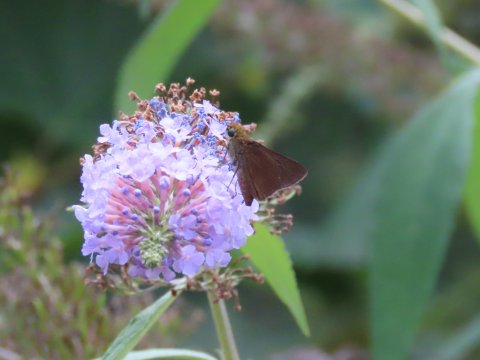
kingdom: Animalia
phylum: Arthropoda
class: Insecta
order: Lepidoptera
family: Hesperiidae
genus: Euphyes
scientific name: Euphyes vestris
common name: Dun Skipper
